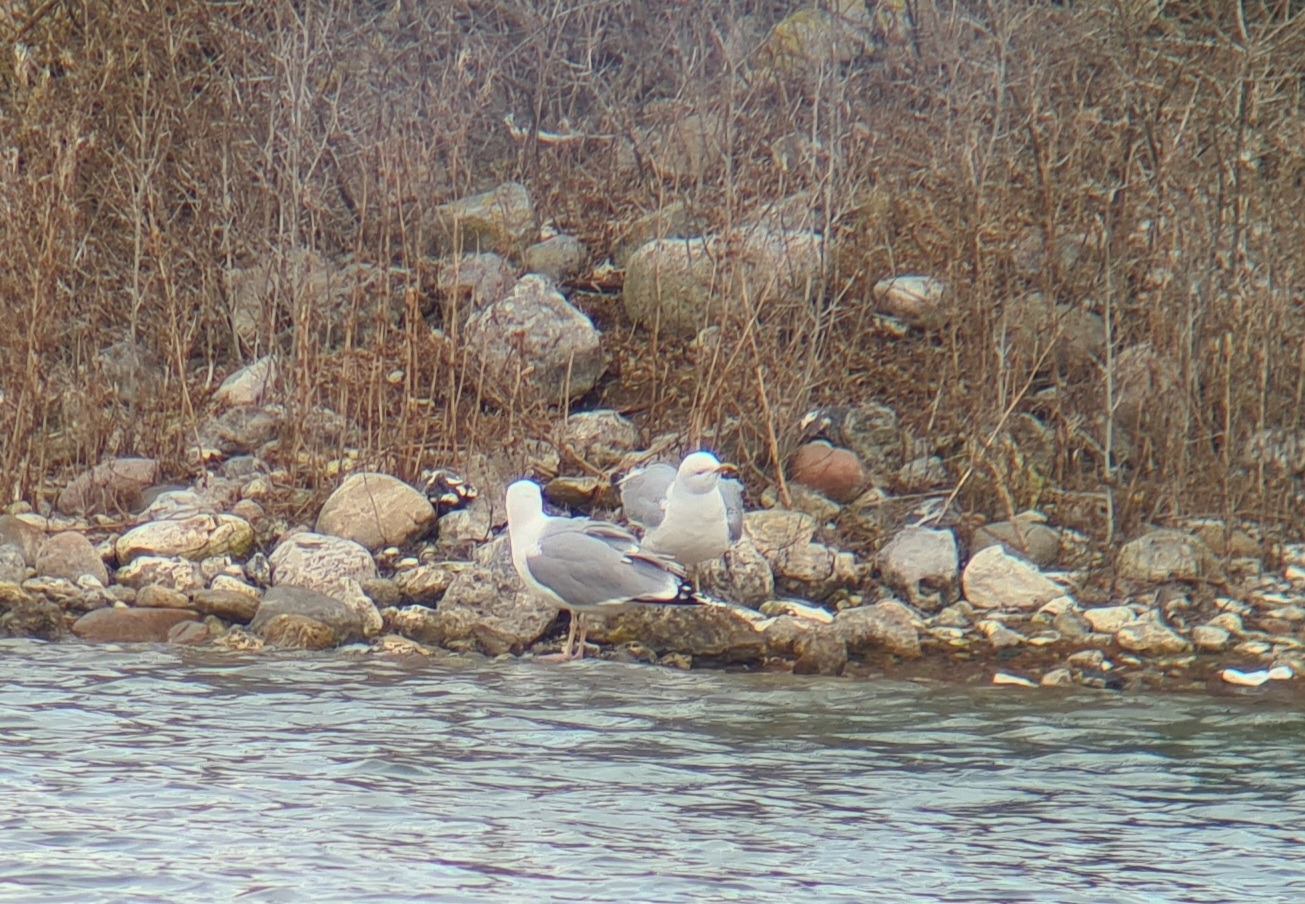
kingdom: Animalia
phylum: Chordata
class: Aves
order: Charadriiformes
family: Laridae
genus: Larus
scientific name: Larus argentatus
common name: Sølvmåge
